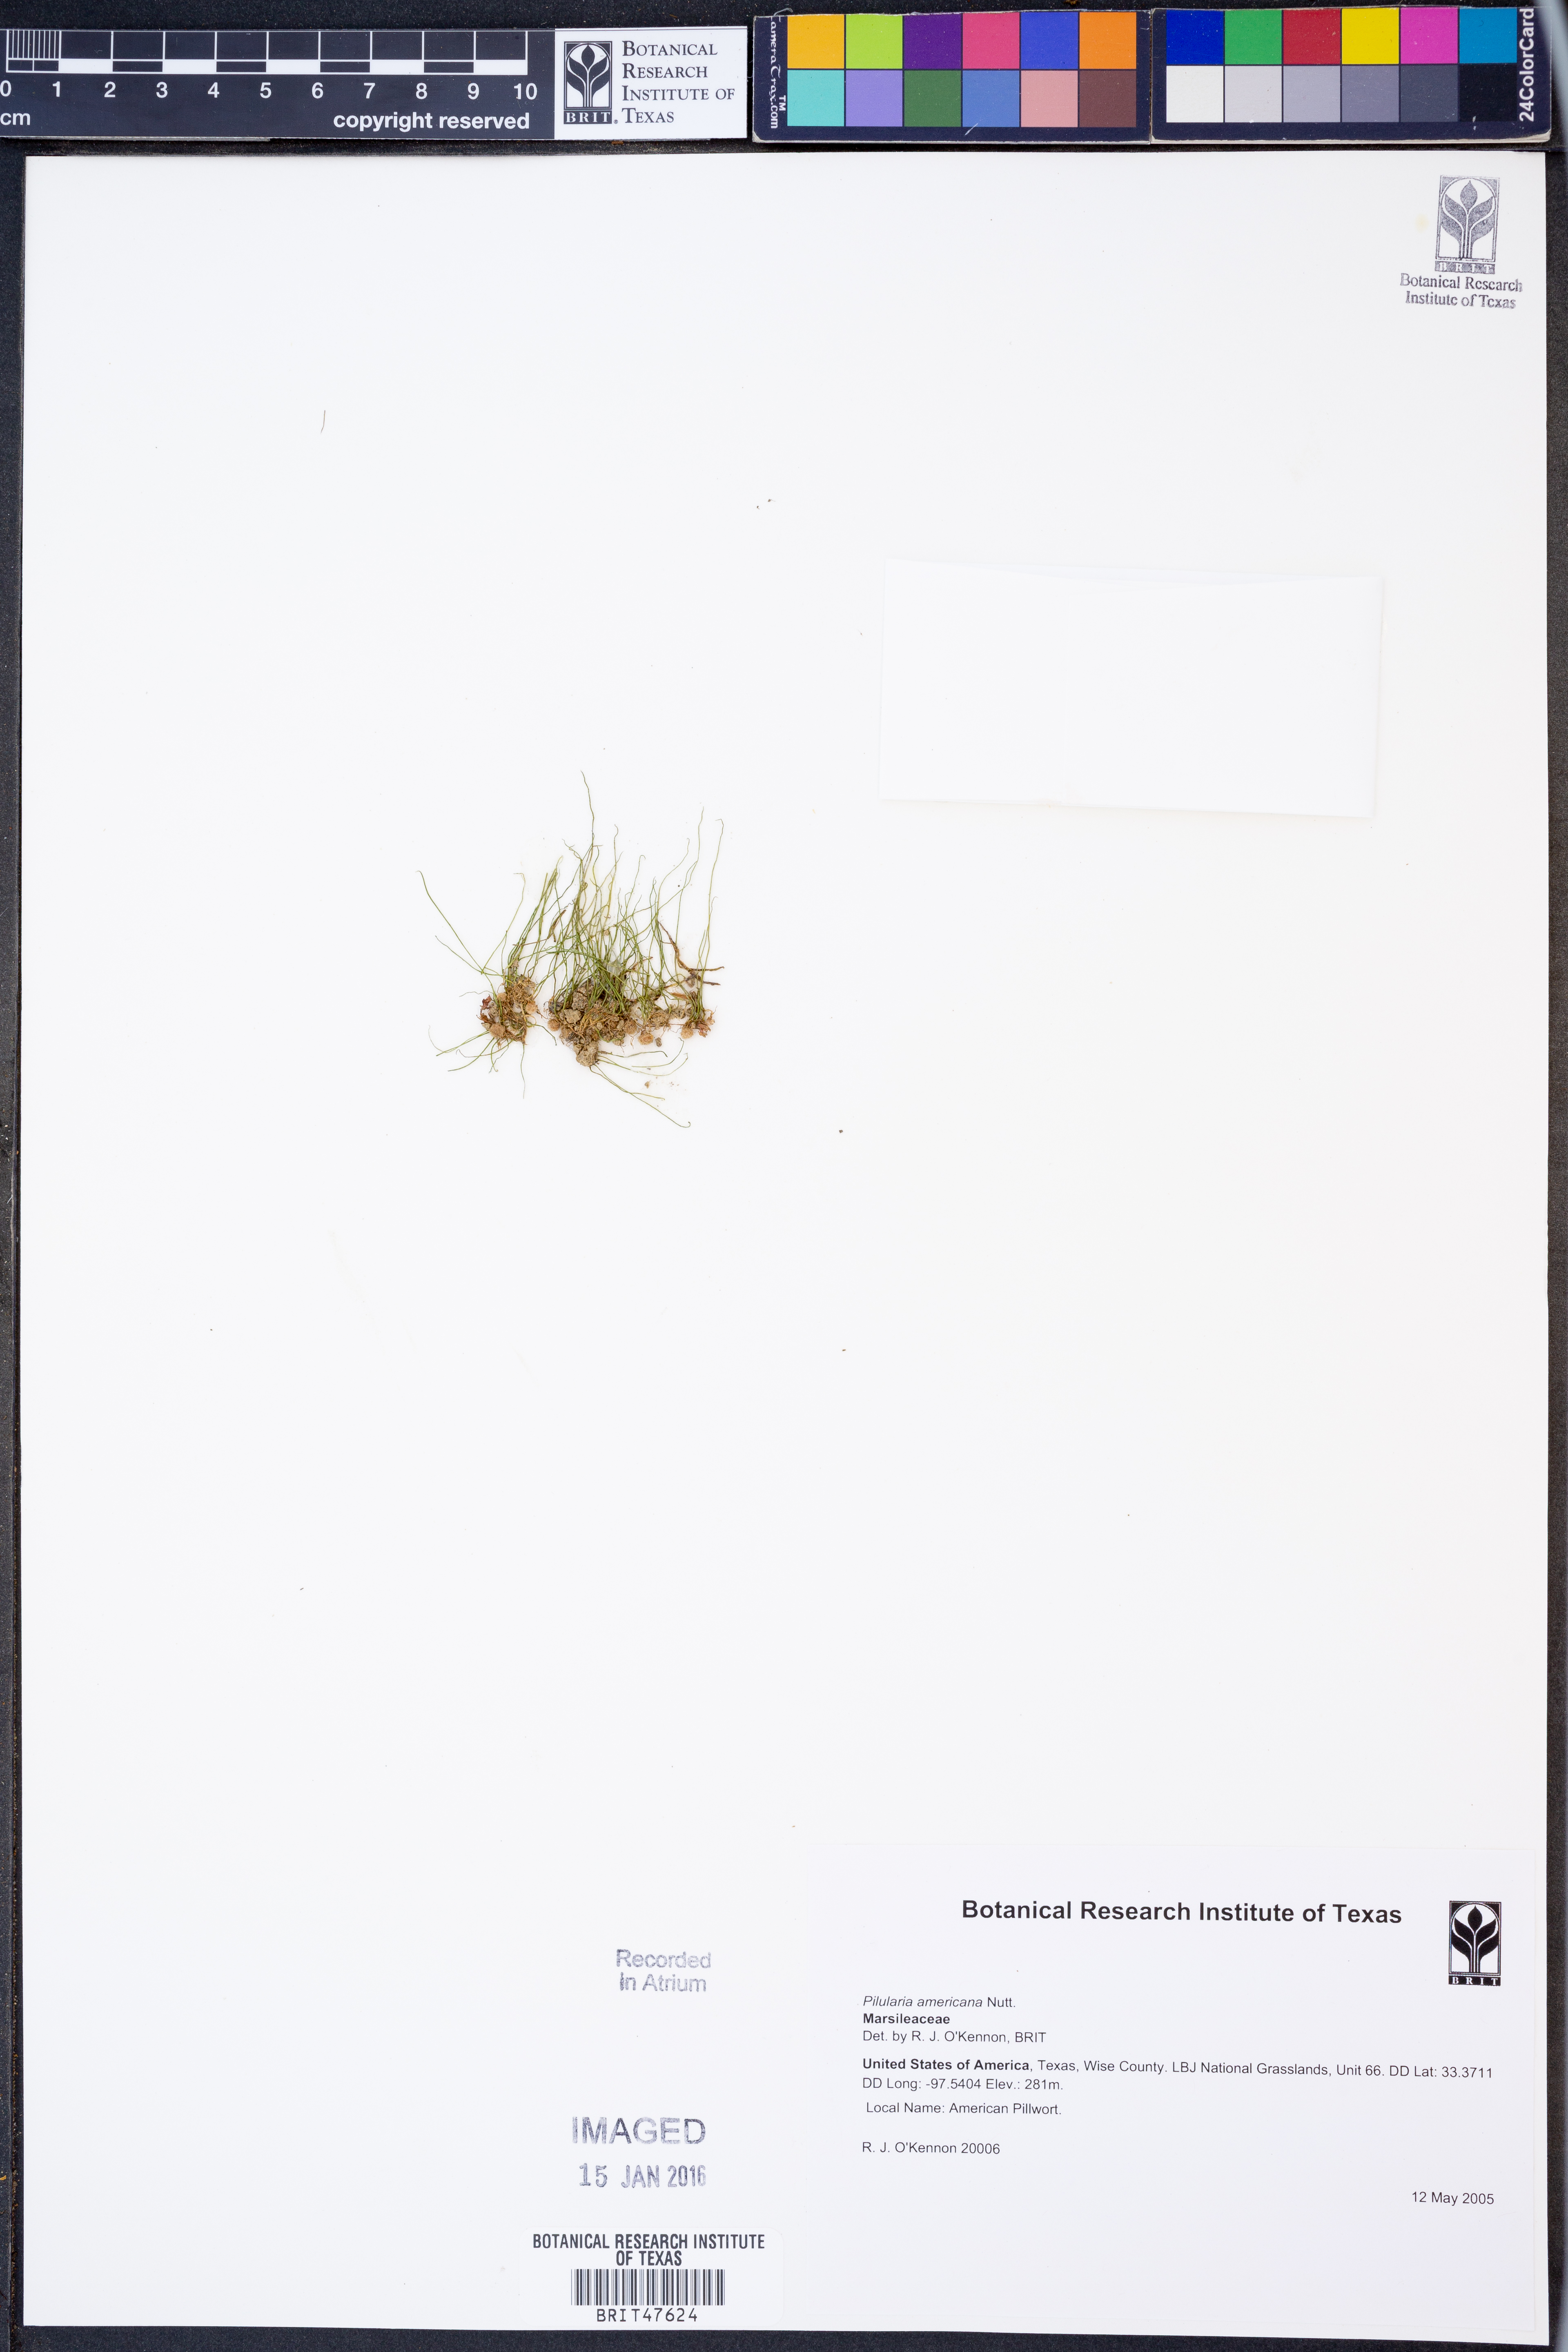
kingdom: Plantae
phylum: Tracheophyta
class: Polypodiopsida
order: Salviniales
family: Marsileaceae
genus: Pilularia
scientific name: Pilularia americana
